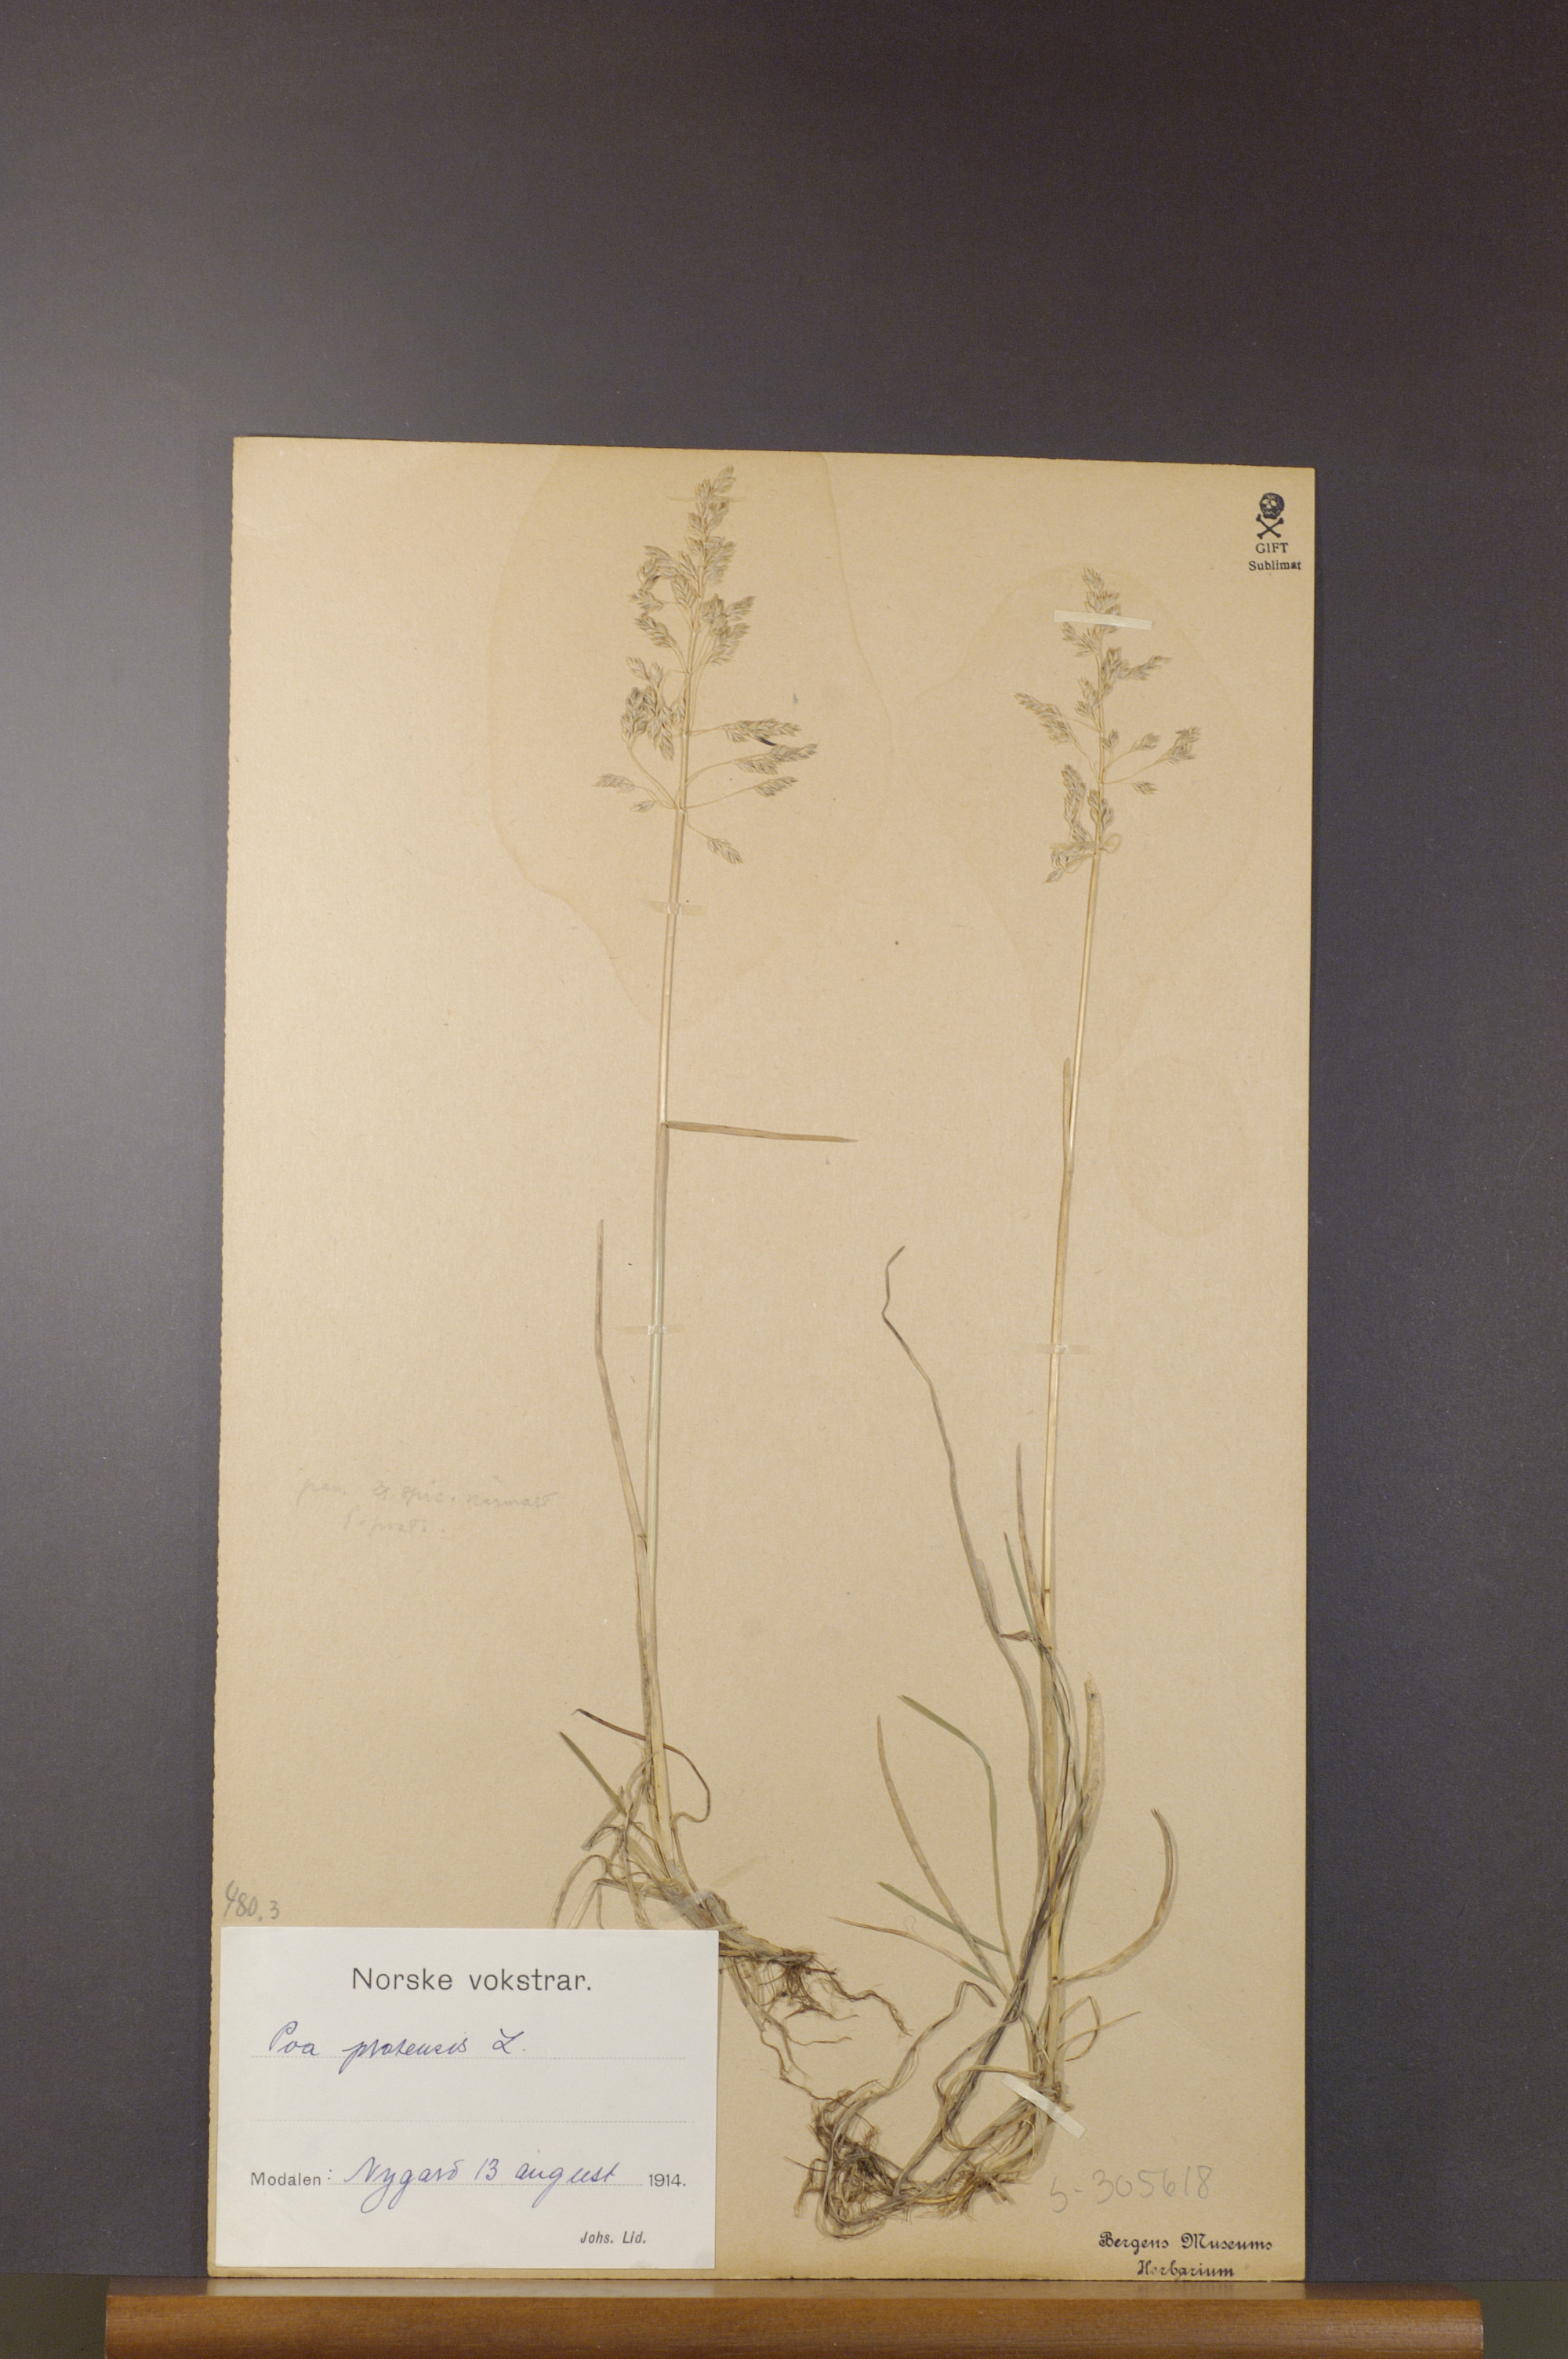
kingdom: Plantae
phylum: Tracheophyta
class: Liliopsida
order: Poales
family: Poaceae
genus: Poa
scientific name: Poa pratensis
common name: Kentucky bluegrass
